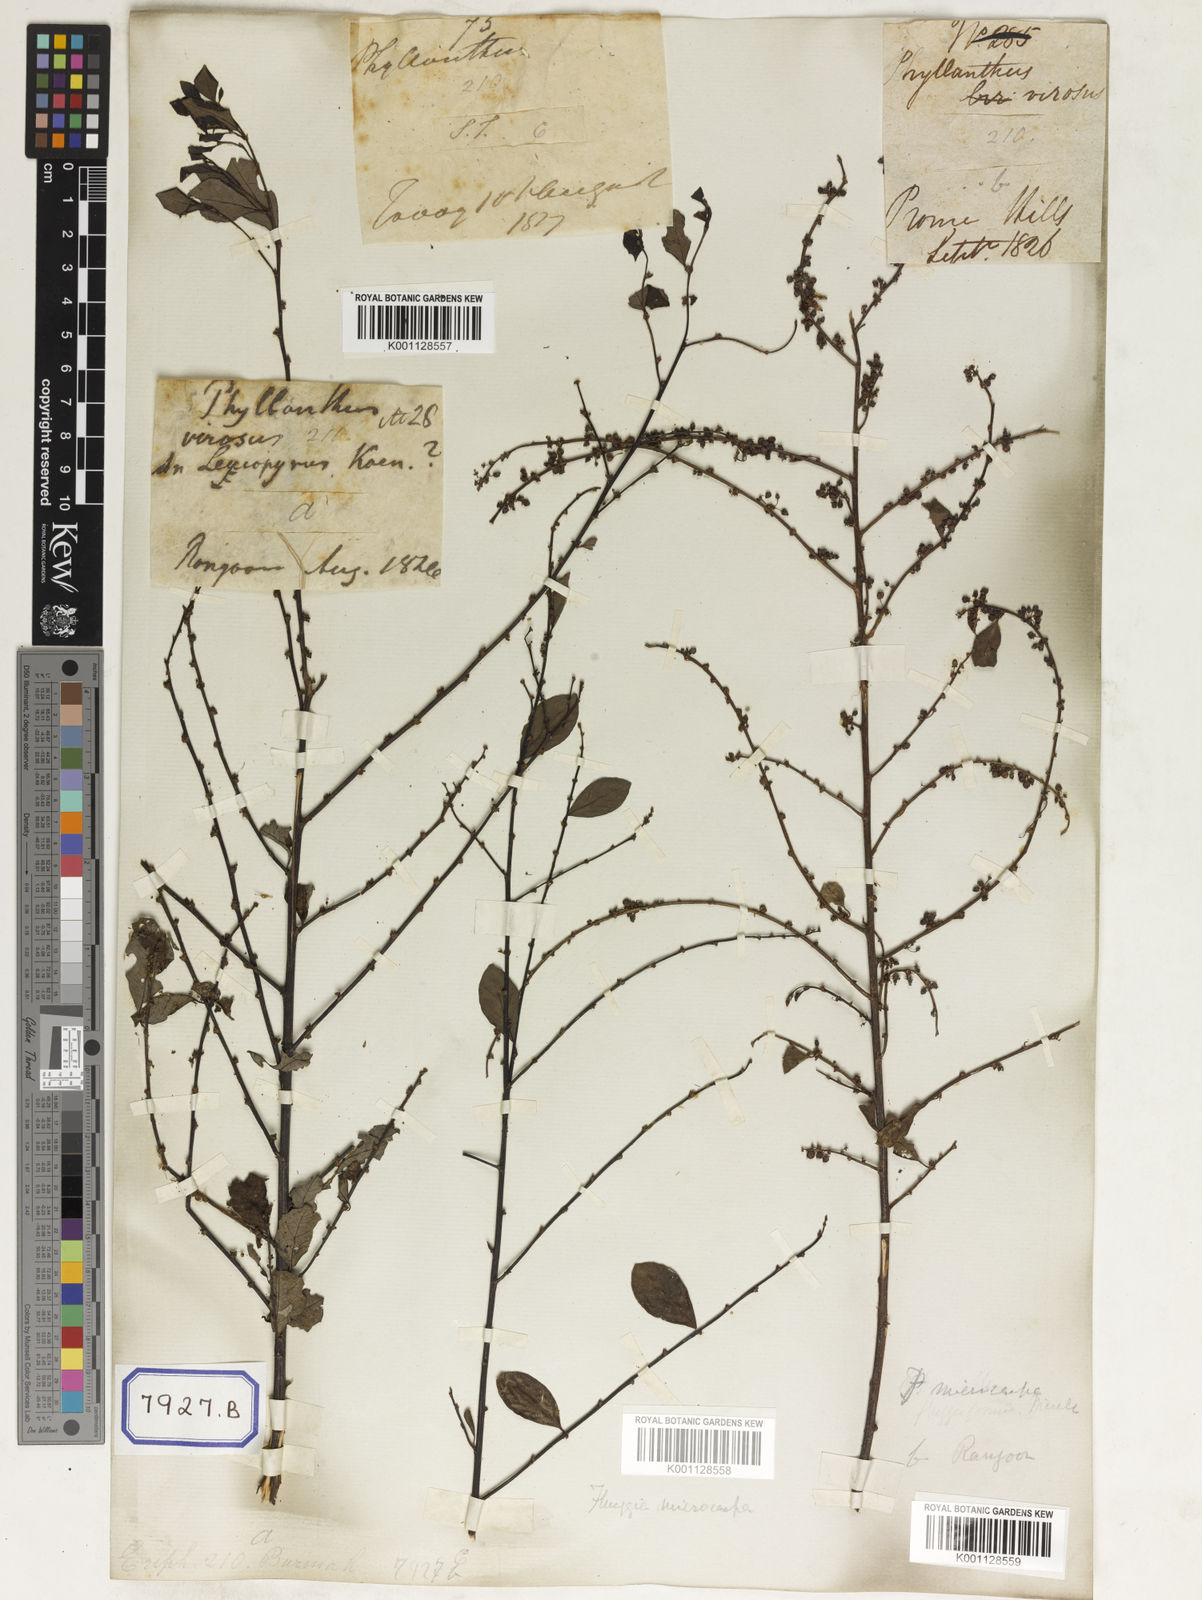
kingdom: Plantae
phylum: Tracheophyta
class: Magnoliopsida
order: Malpighiales
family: Euphorbiaceae
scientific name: Euphorbiaceae
